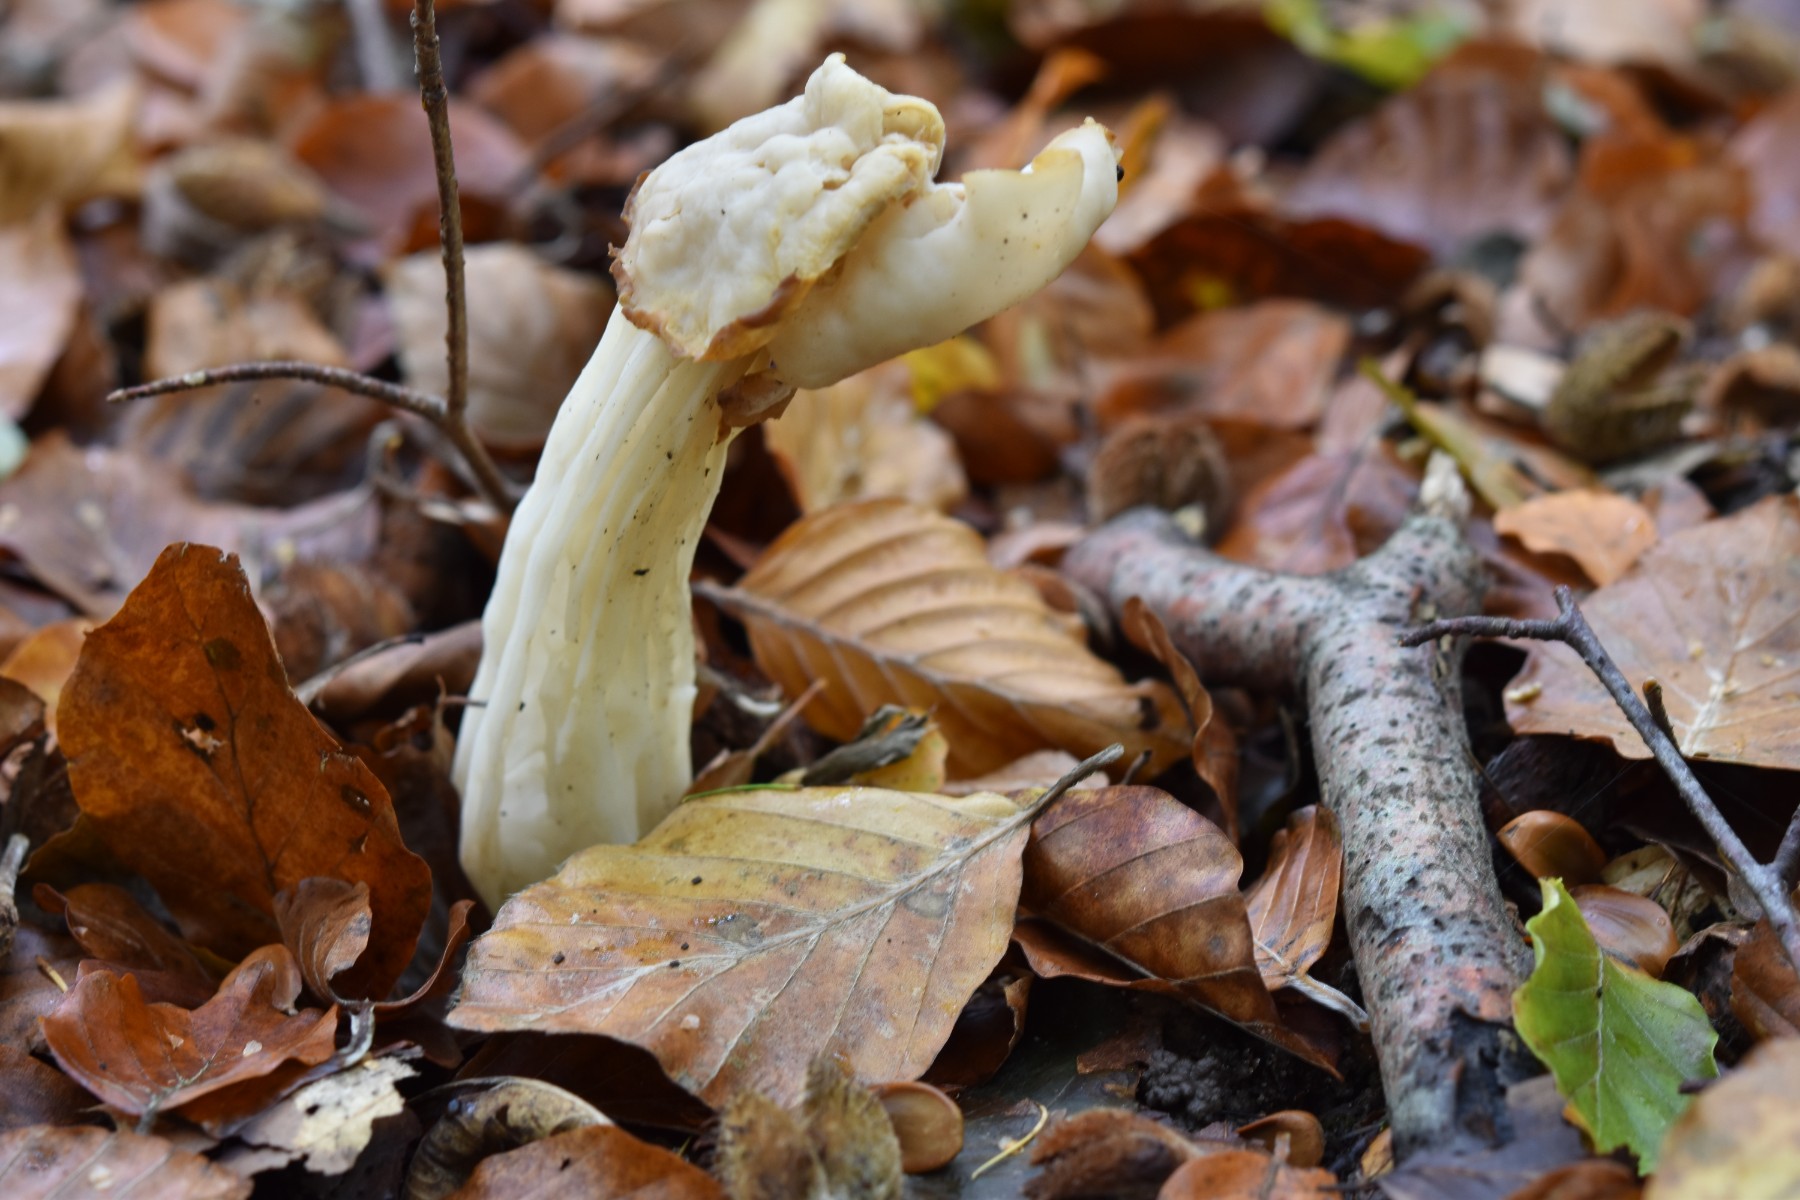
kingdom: Fungi
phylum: Ascomycota
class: Pezizomycetes
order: Pezizales
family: Helvellaceae
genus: Helvella
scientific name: Helvella crispa
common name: kruset foldhat
